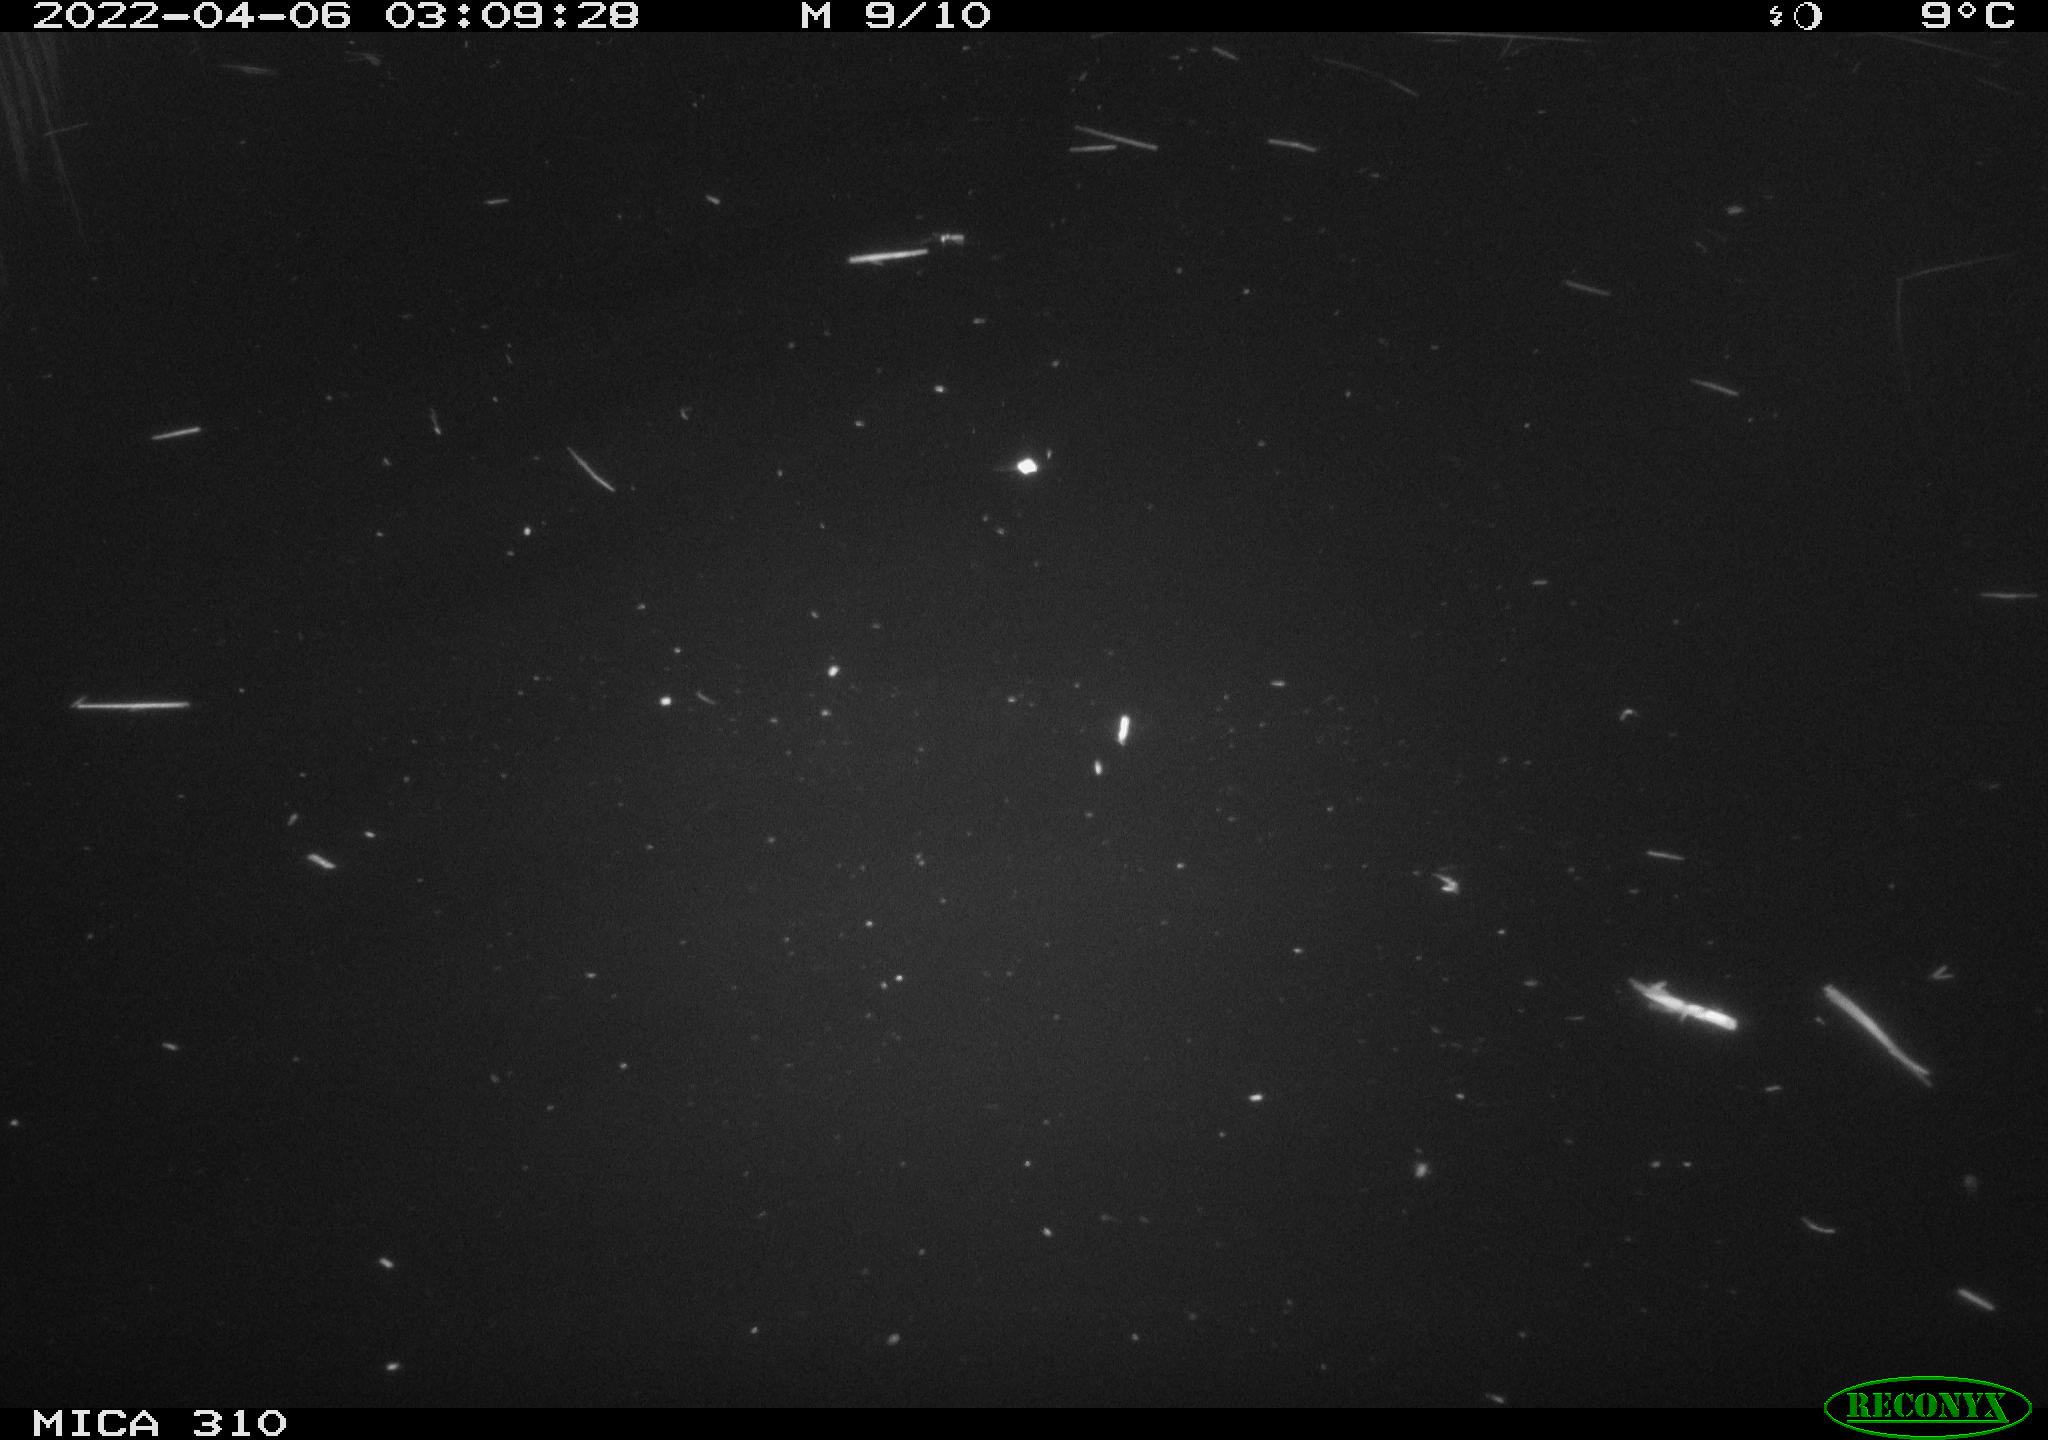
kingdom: Animalia
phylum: Chordata
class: Mammalia
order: Rodentia
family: Cricetidae
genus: Ondatra
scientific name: Ondatra zibethicus
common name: Muskrat
